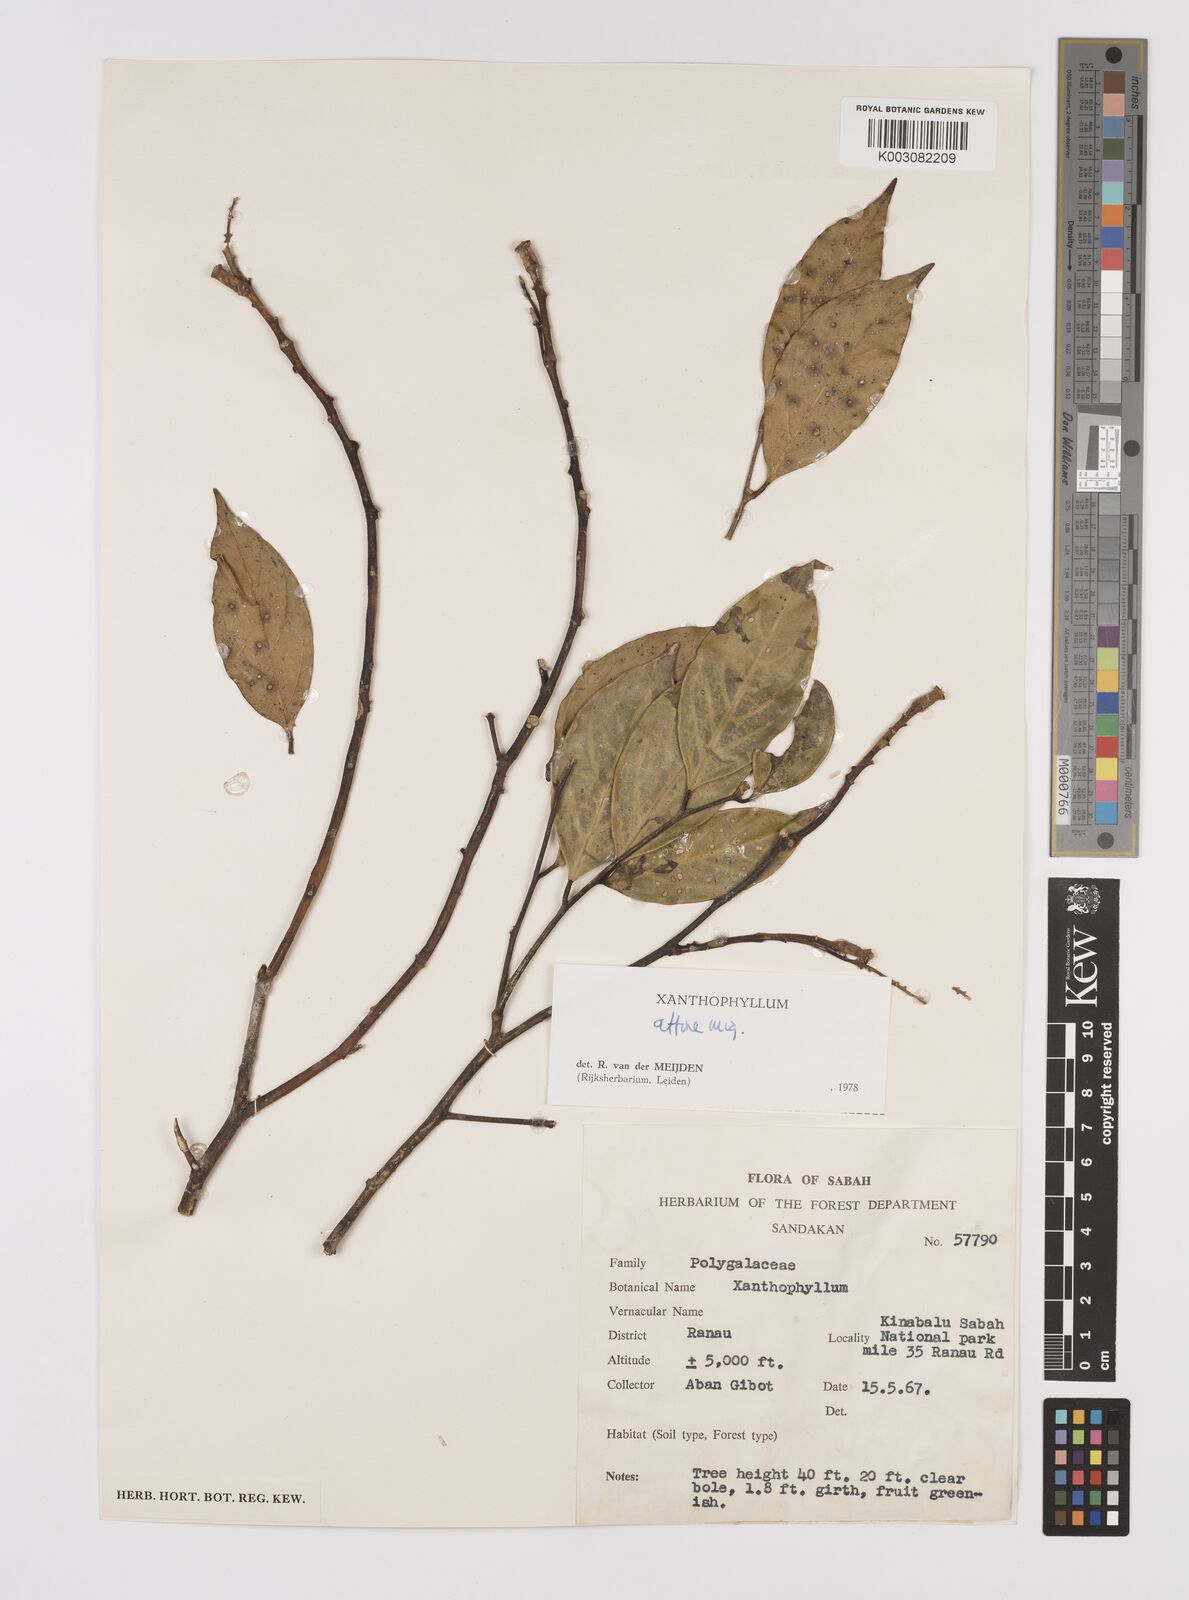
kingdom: Plantae
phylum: Tracheophyta
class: Magnoliopsida
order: Fabales
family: Polygalaceae
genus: Xanthophyllum
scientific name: Xanthophyllum flavescens
